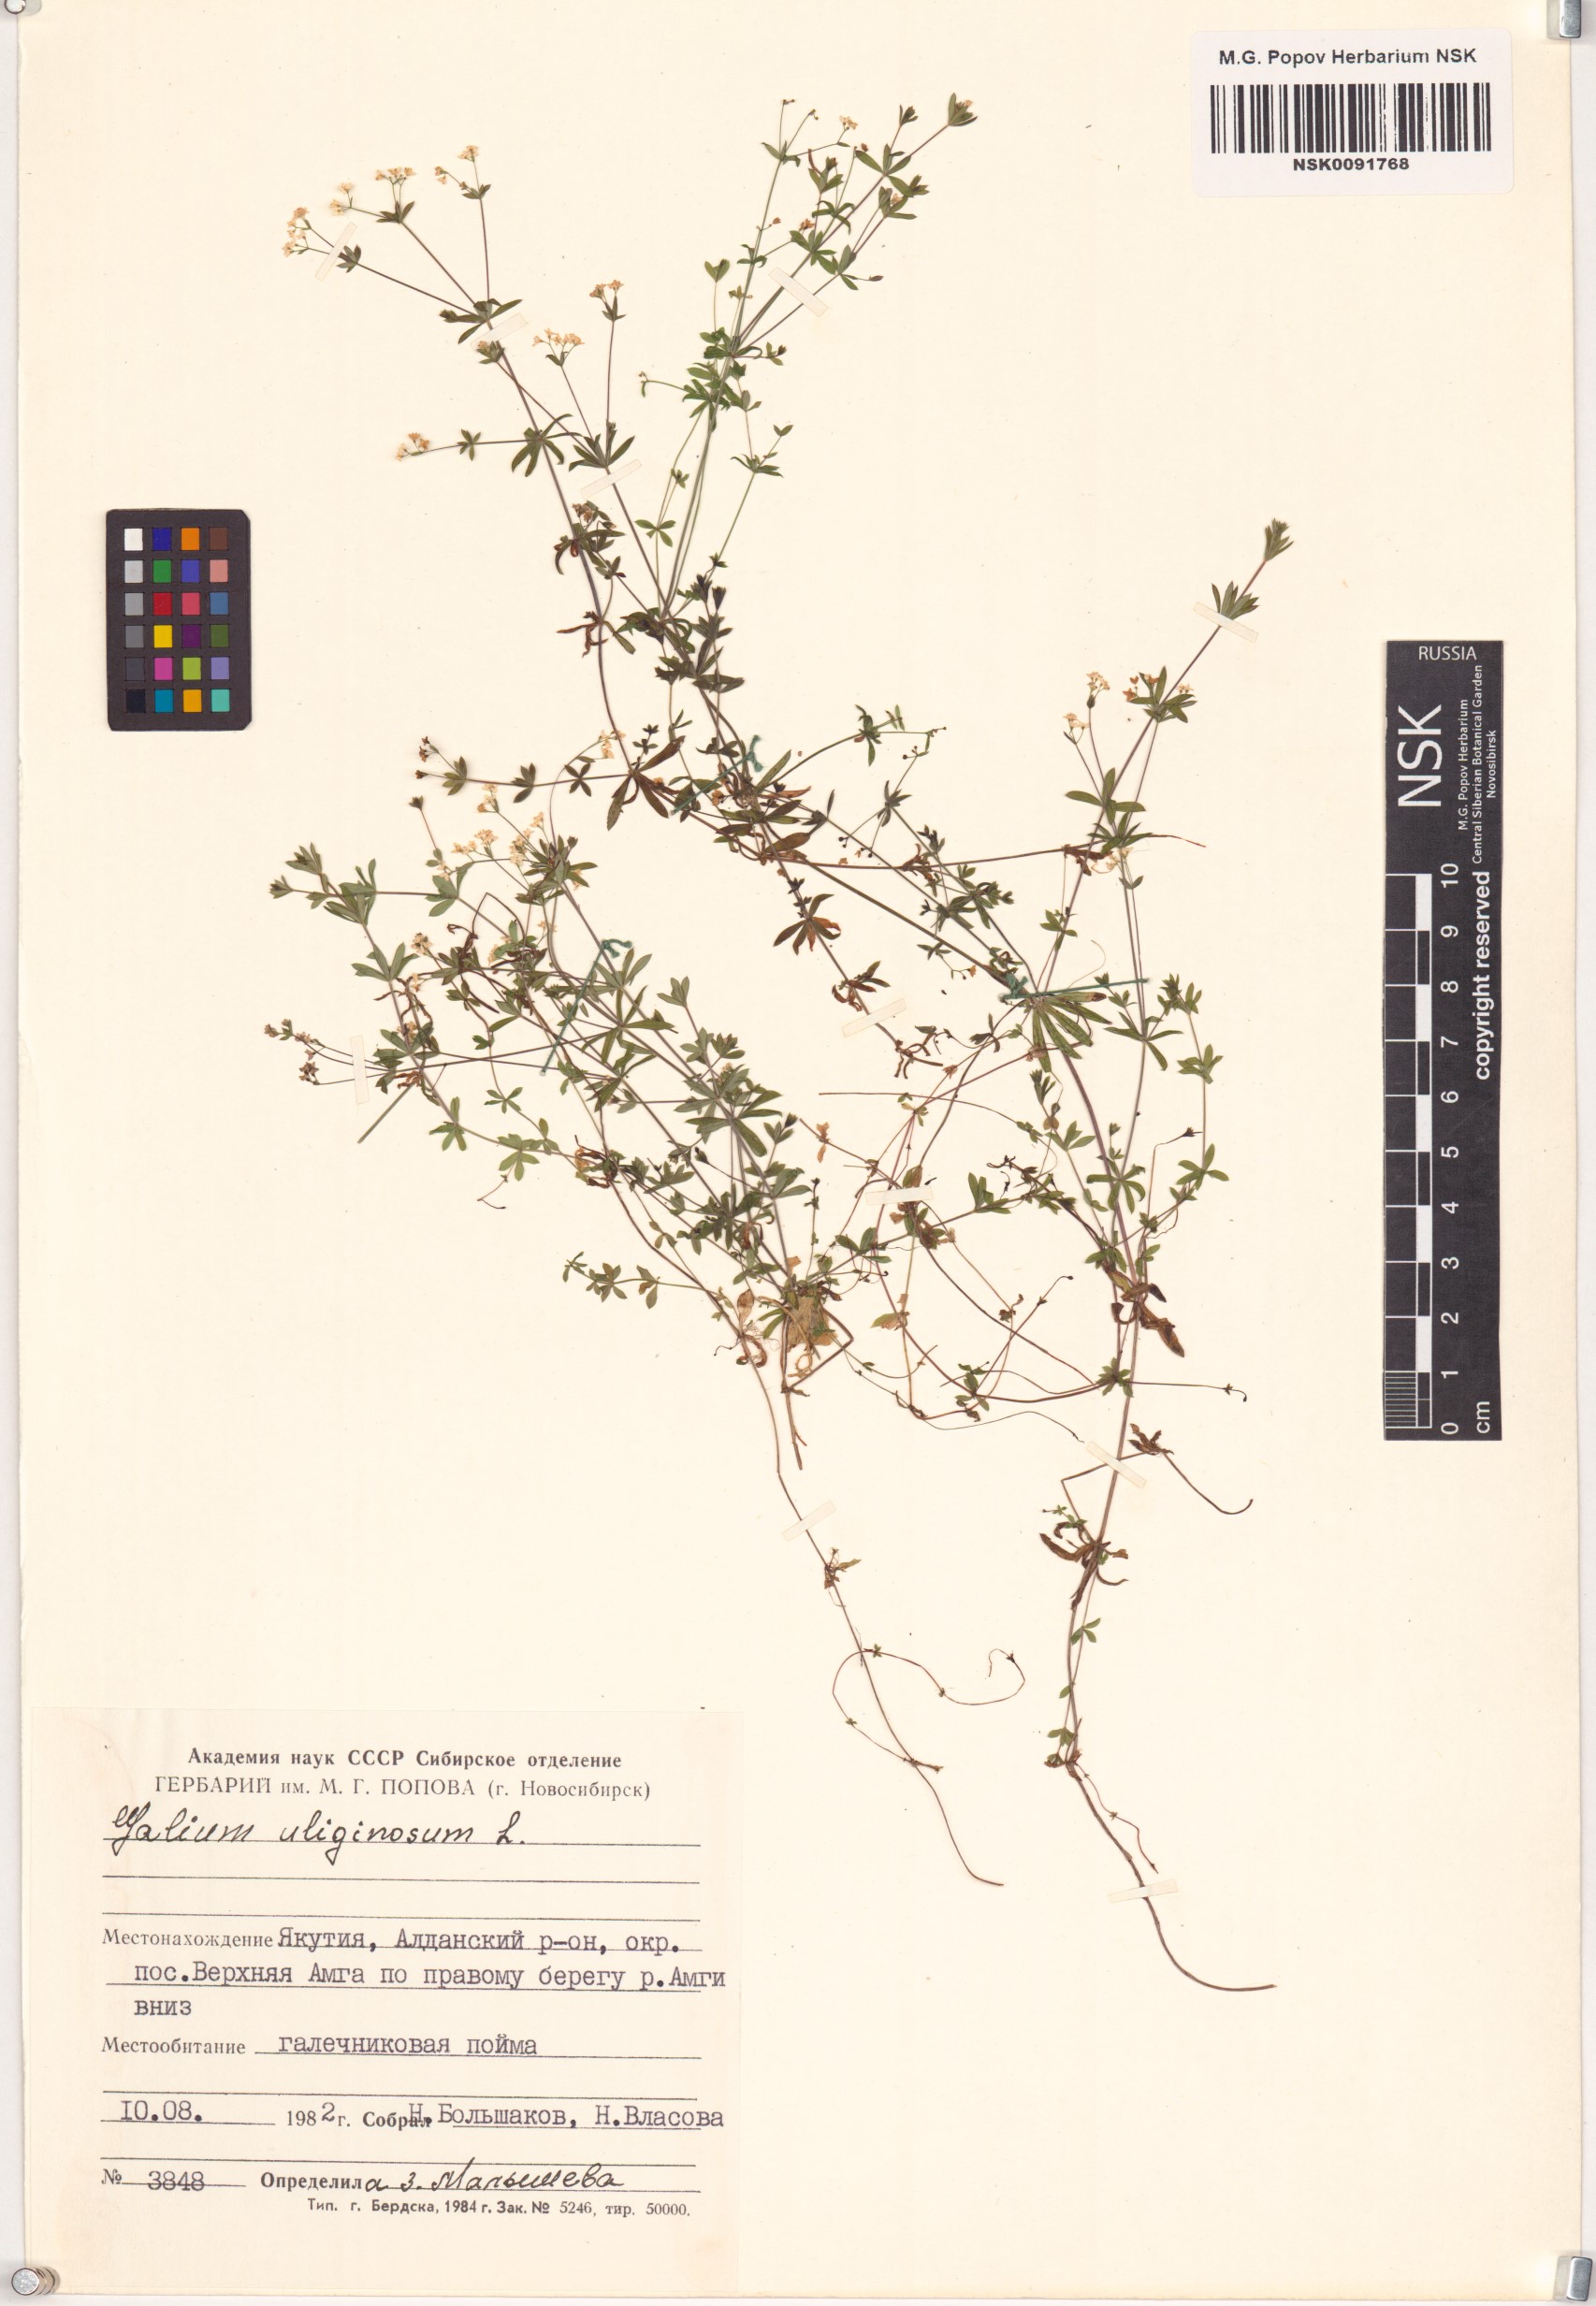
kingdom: Plantae
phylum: Tracheophyta
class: Magnoliopsida
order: Gentianales
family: Rubiaceae
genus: Galium
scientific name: Galium uliginosum
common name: Fen bedstraw
